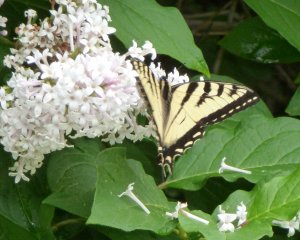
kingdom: Animalia
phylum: Arthropoda
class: Insecta
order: Lepidoptera
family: Papilionidae
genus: Pterourus
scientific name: Pterourus canadensis
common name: Canadian Tiger Swallowtail
